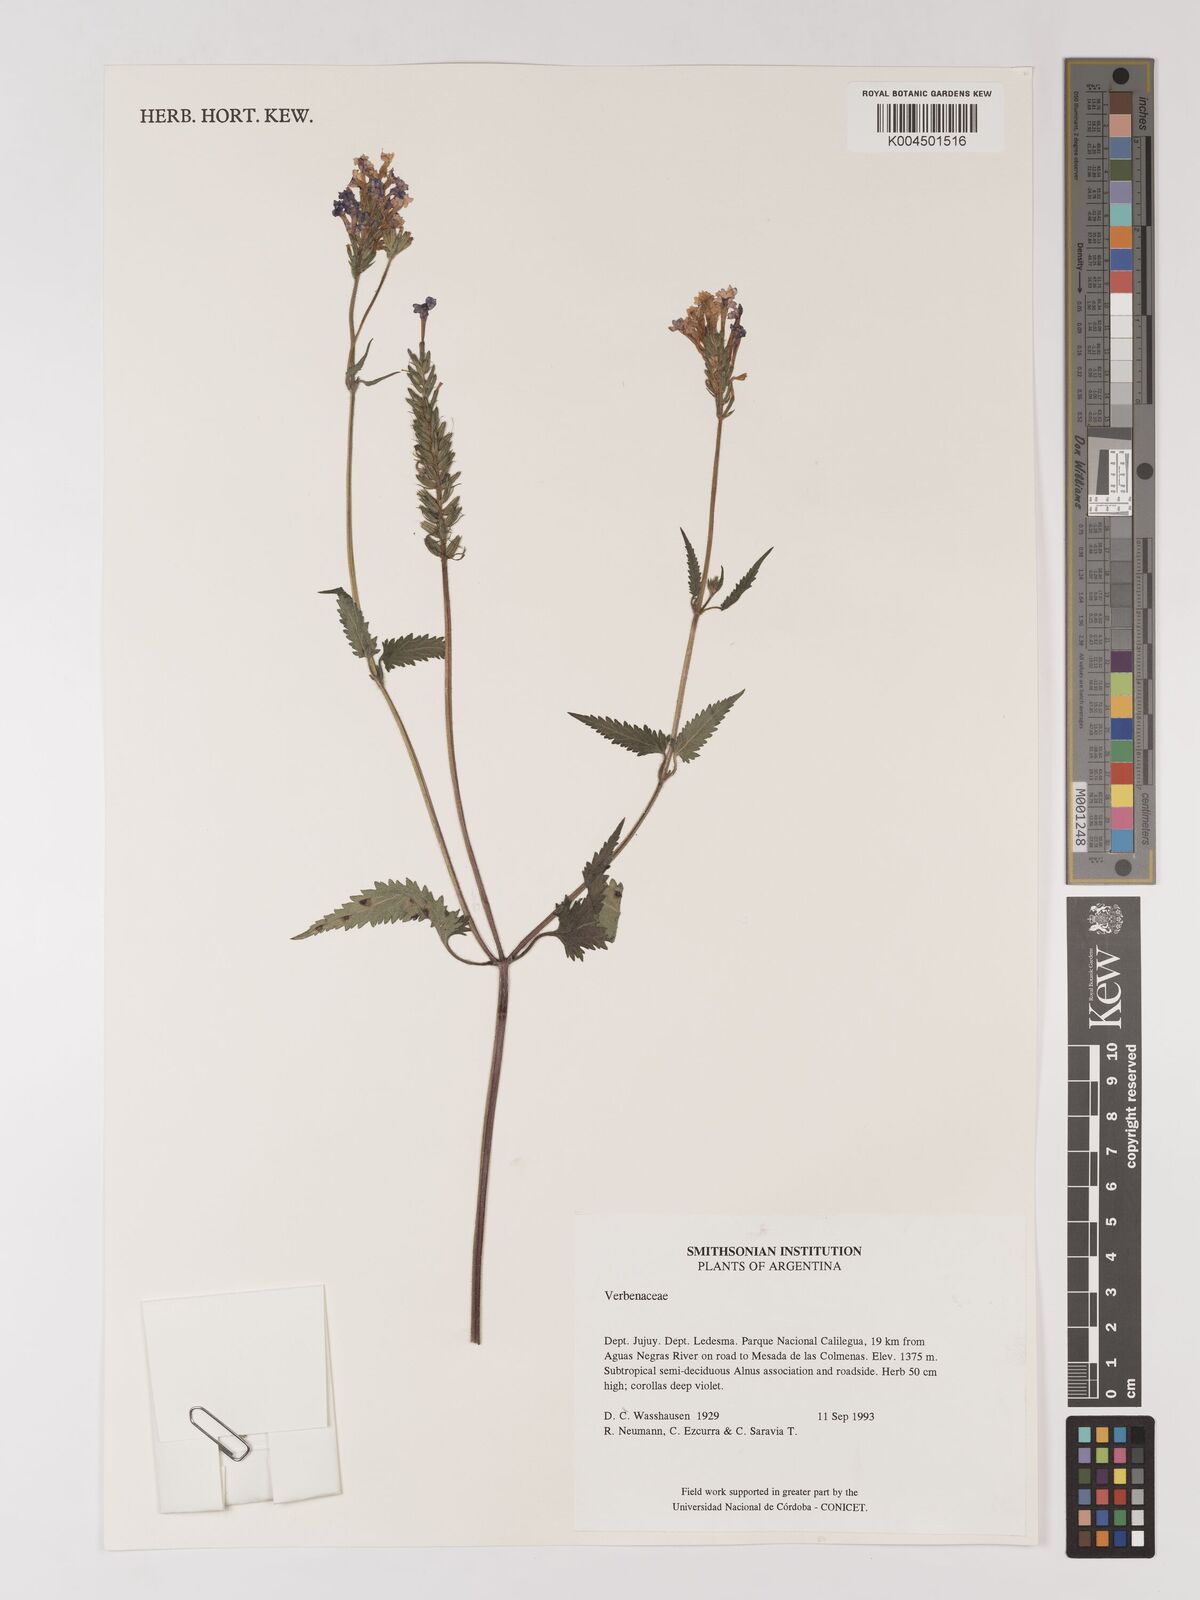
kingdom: Plantae
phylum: Tracheophyta
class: Magnoliopsida
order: Lamiales
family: Verbenaceae
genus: Verbena
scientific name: Verbena
